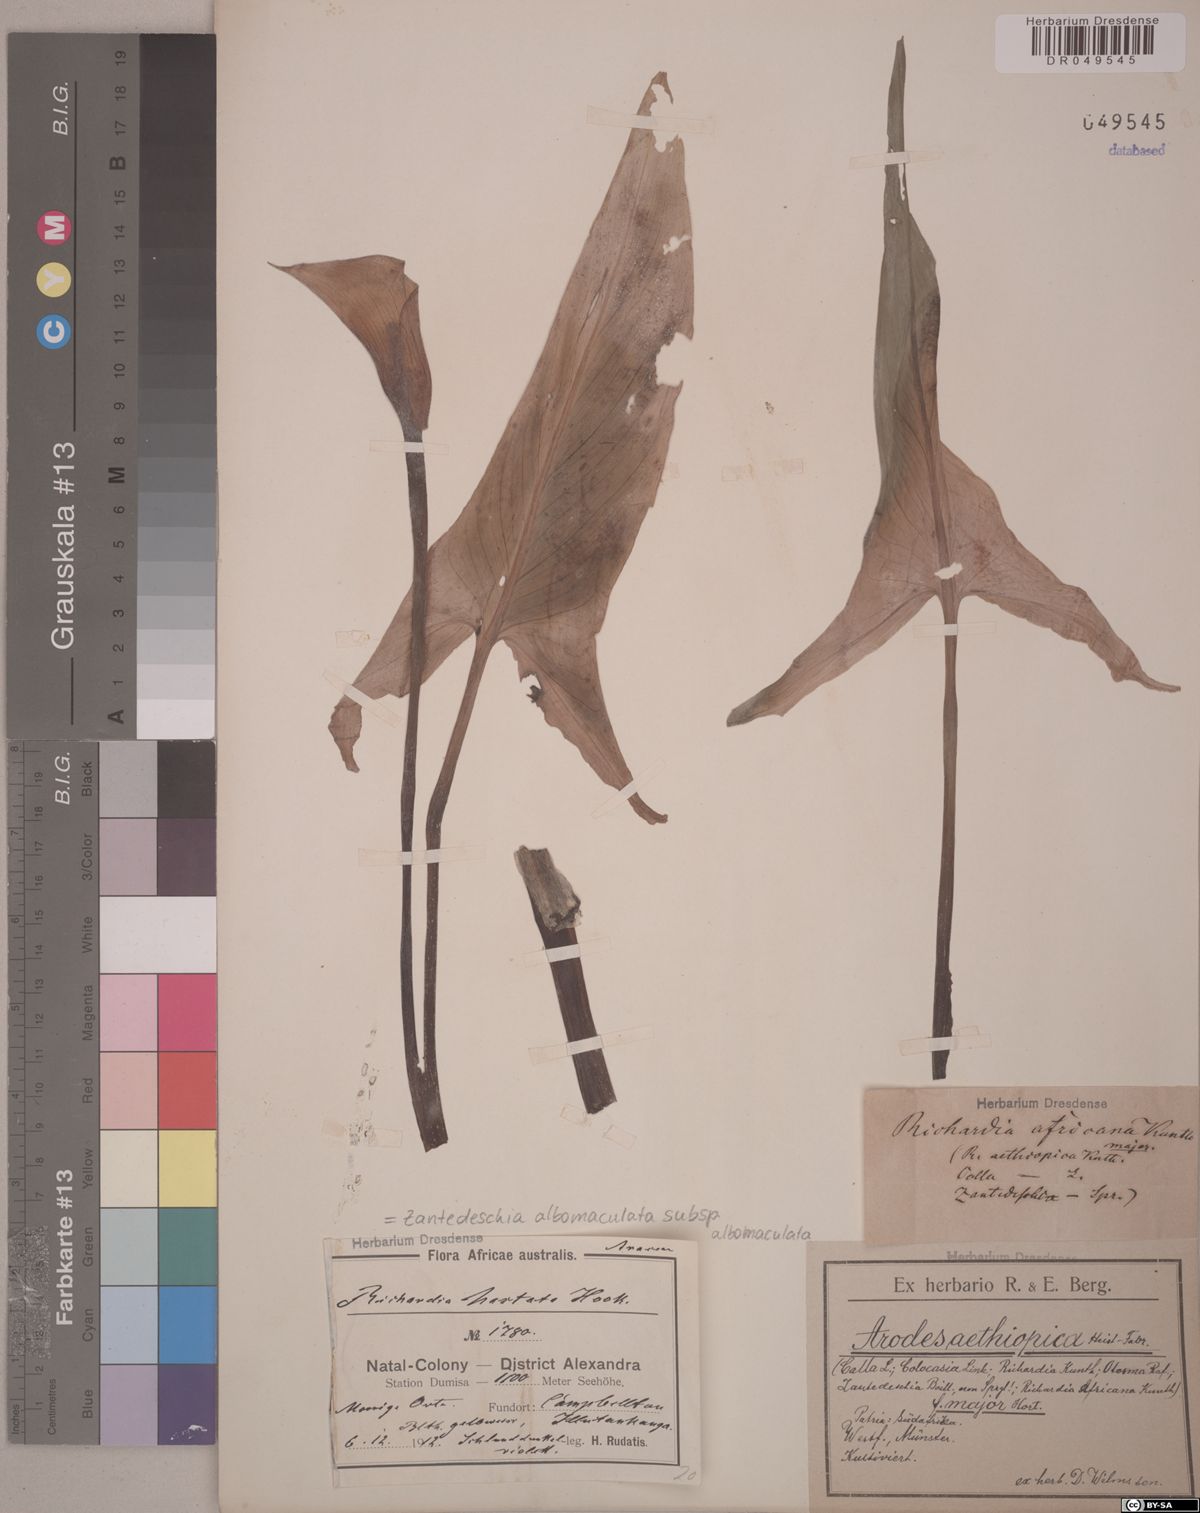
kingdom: Plantae
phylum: Tracheophyta
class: Liliopsida
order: Alismatales
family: Araceae
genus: Zantedeschia
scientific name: Zantedeschia albomaculata
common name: Spotted calla lily
